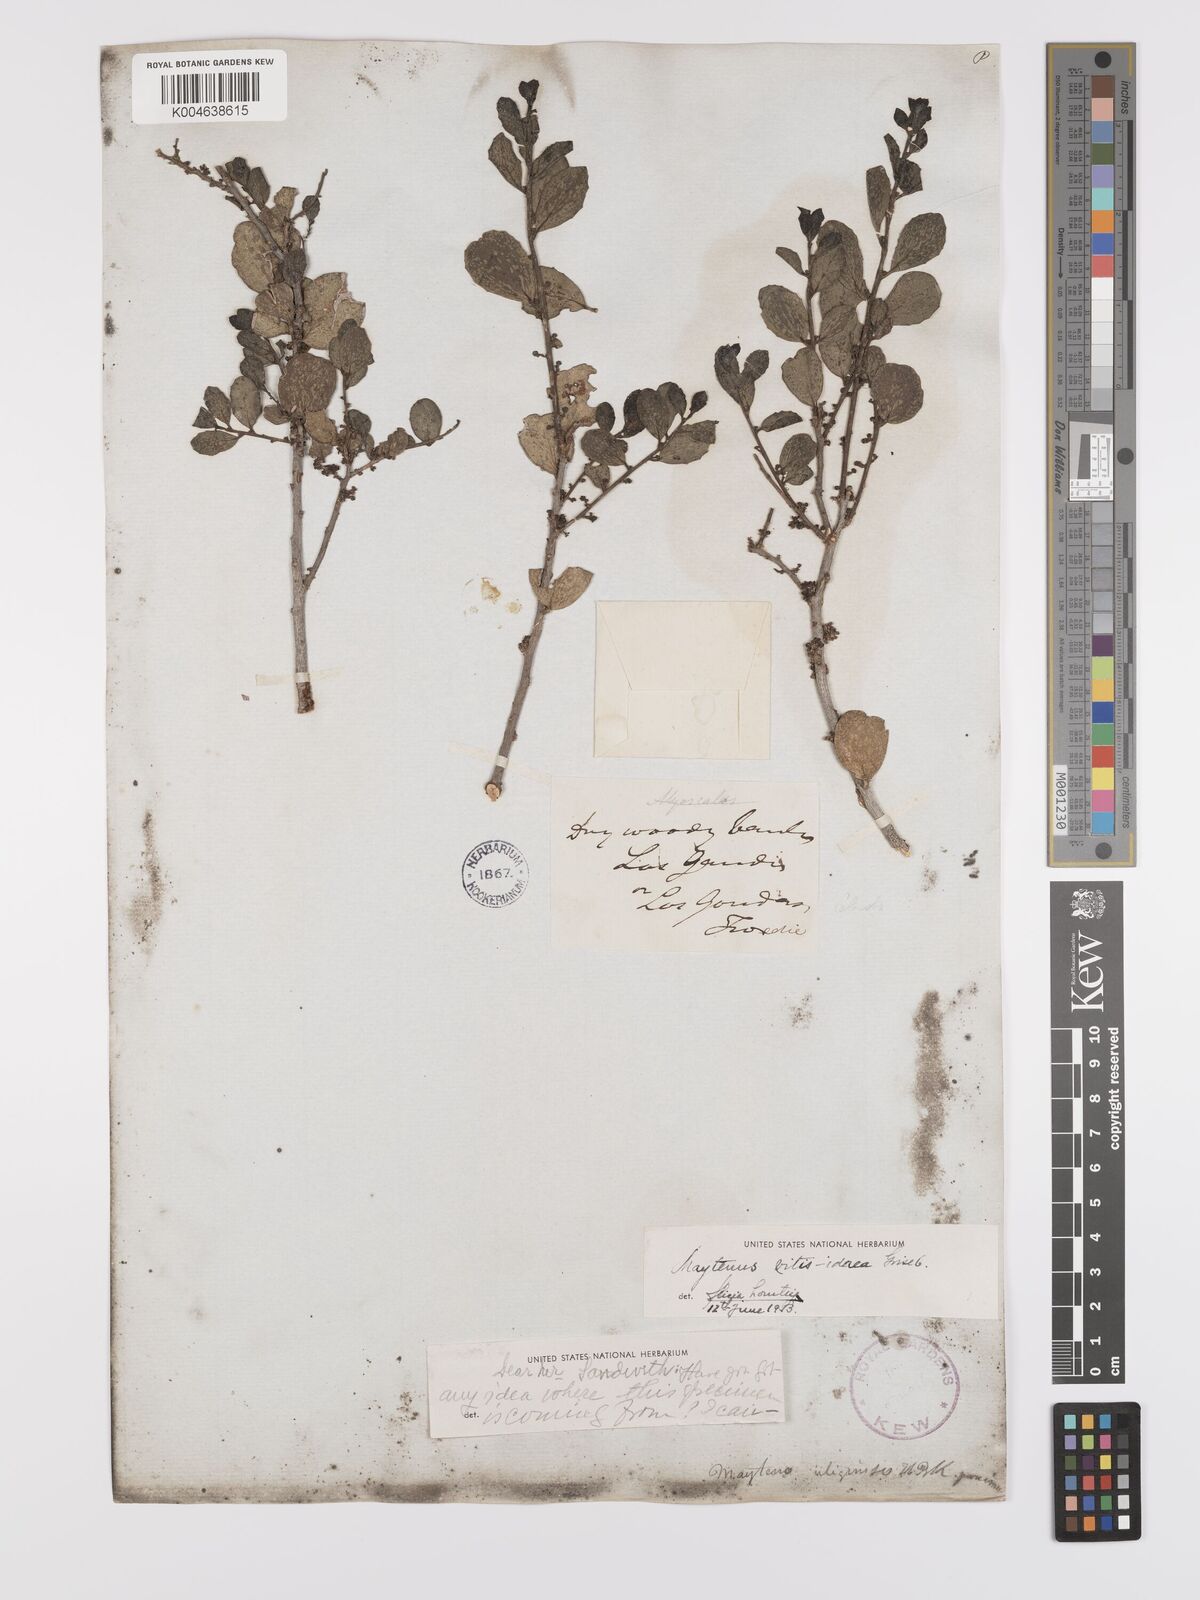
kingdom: Plantae
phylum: Tracheophyta
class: Magnoliopsida
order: Celastrales
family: Celastraceae
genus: Tricerma
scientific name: Tricerma vitis-idaeum
